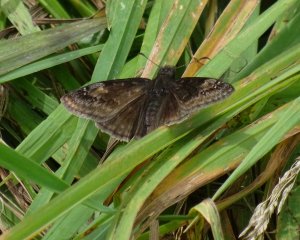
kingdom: Animalia
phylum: Arthropoda
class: Insecta
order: Lepidoptera
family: Hesperiidae
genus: Gesta
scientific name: Gesta
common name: Wild Indigo Duskywing
